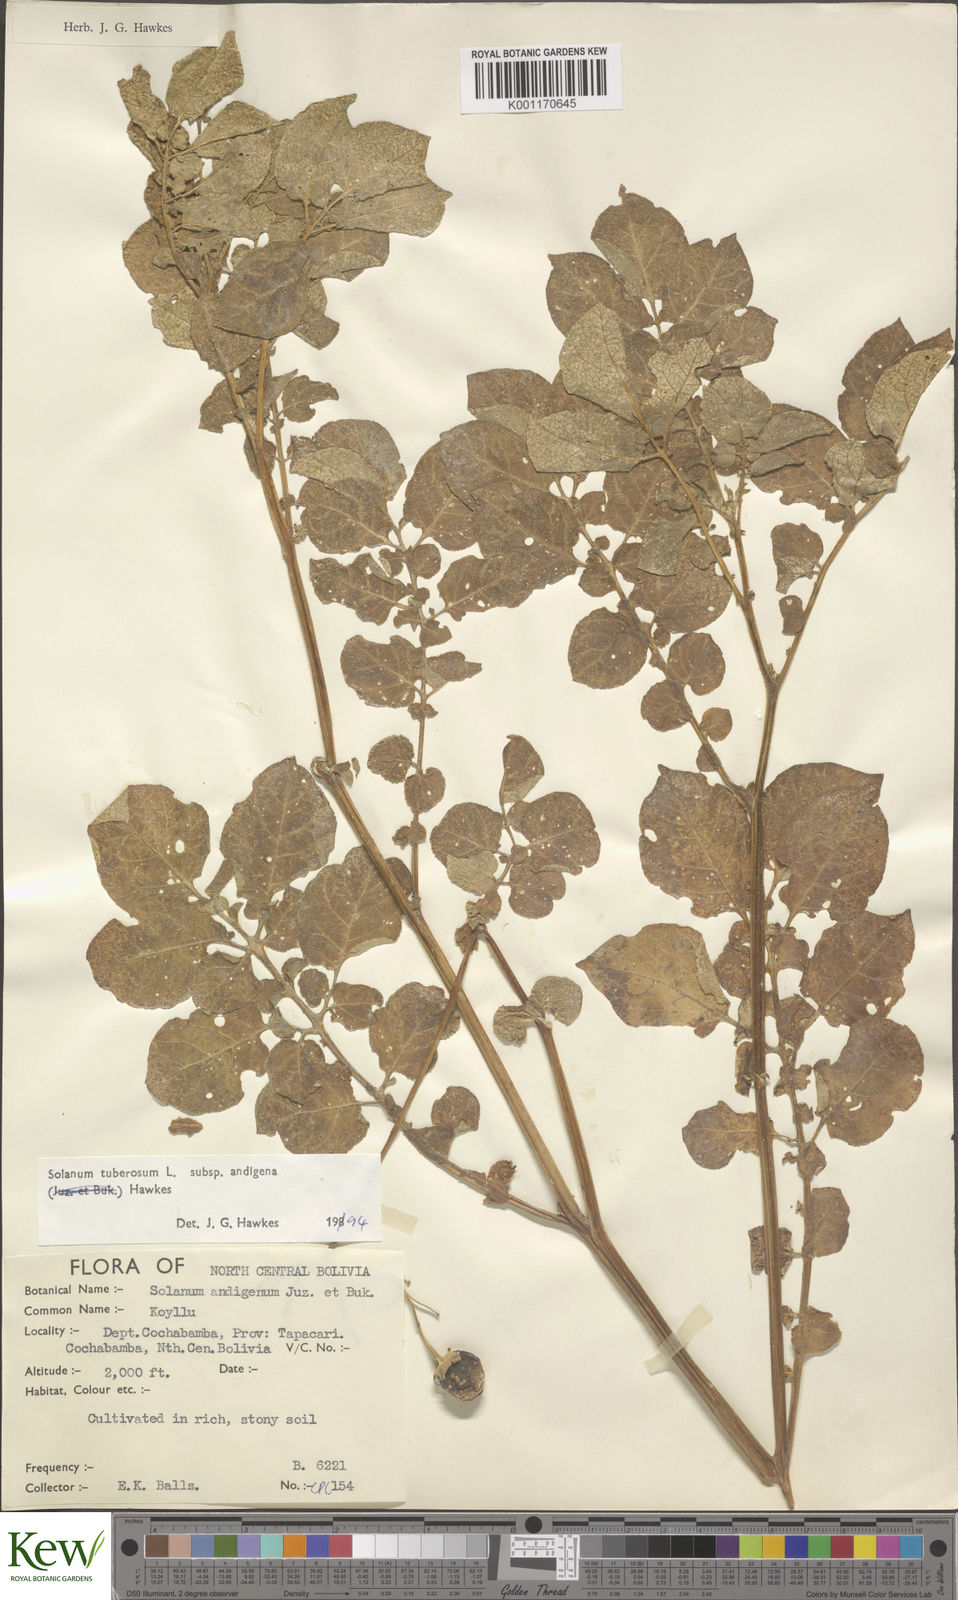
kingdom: Plantae
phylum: Tracheophyta
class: Magnoliopsida
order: Solanales
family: Solanaceae
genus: Solanum
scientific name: Solanum tuberosum
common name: Potato
